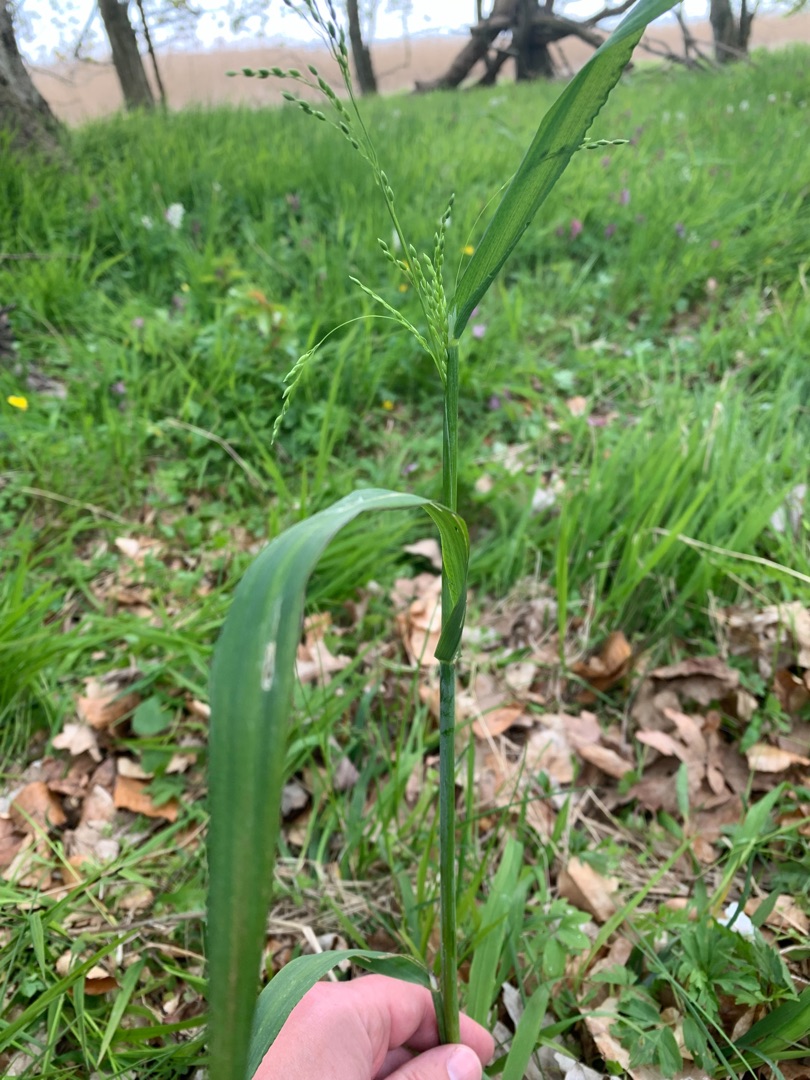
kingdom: Plantae
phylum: Tracheophyta
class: Liliopsida
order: Poales
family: Poaceae
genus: Milium
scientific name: Milium effusum
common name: Miliegræs
